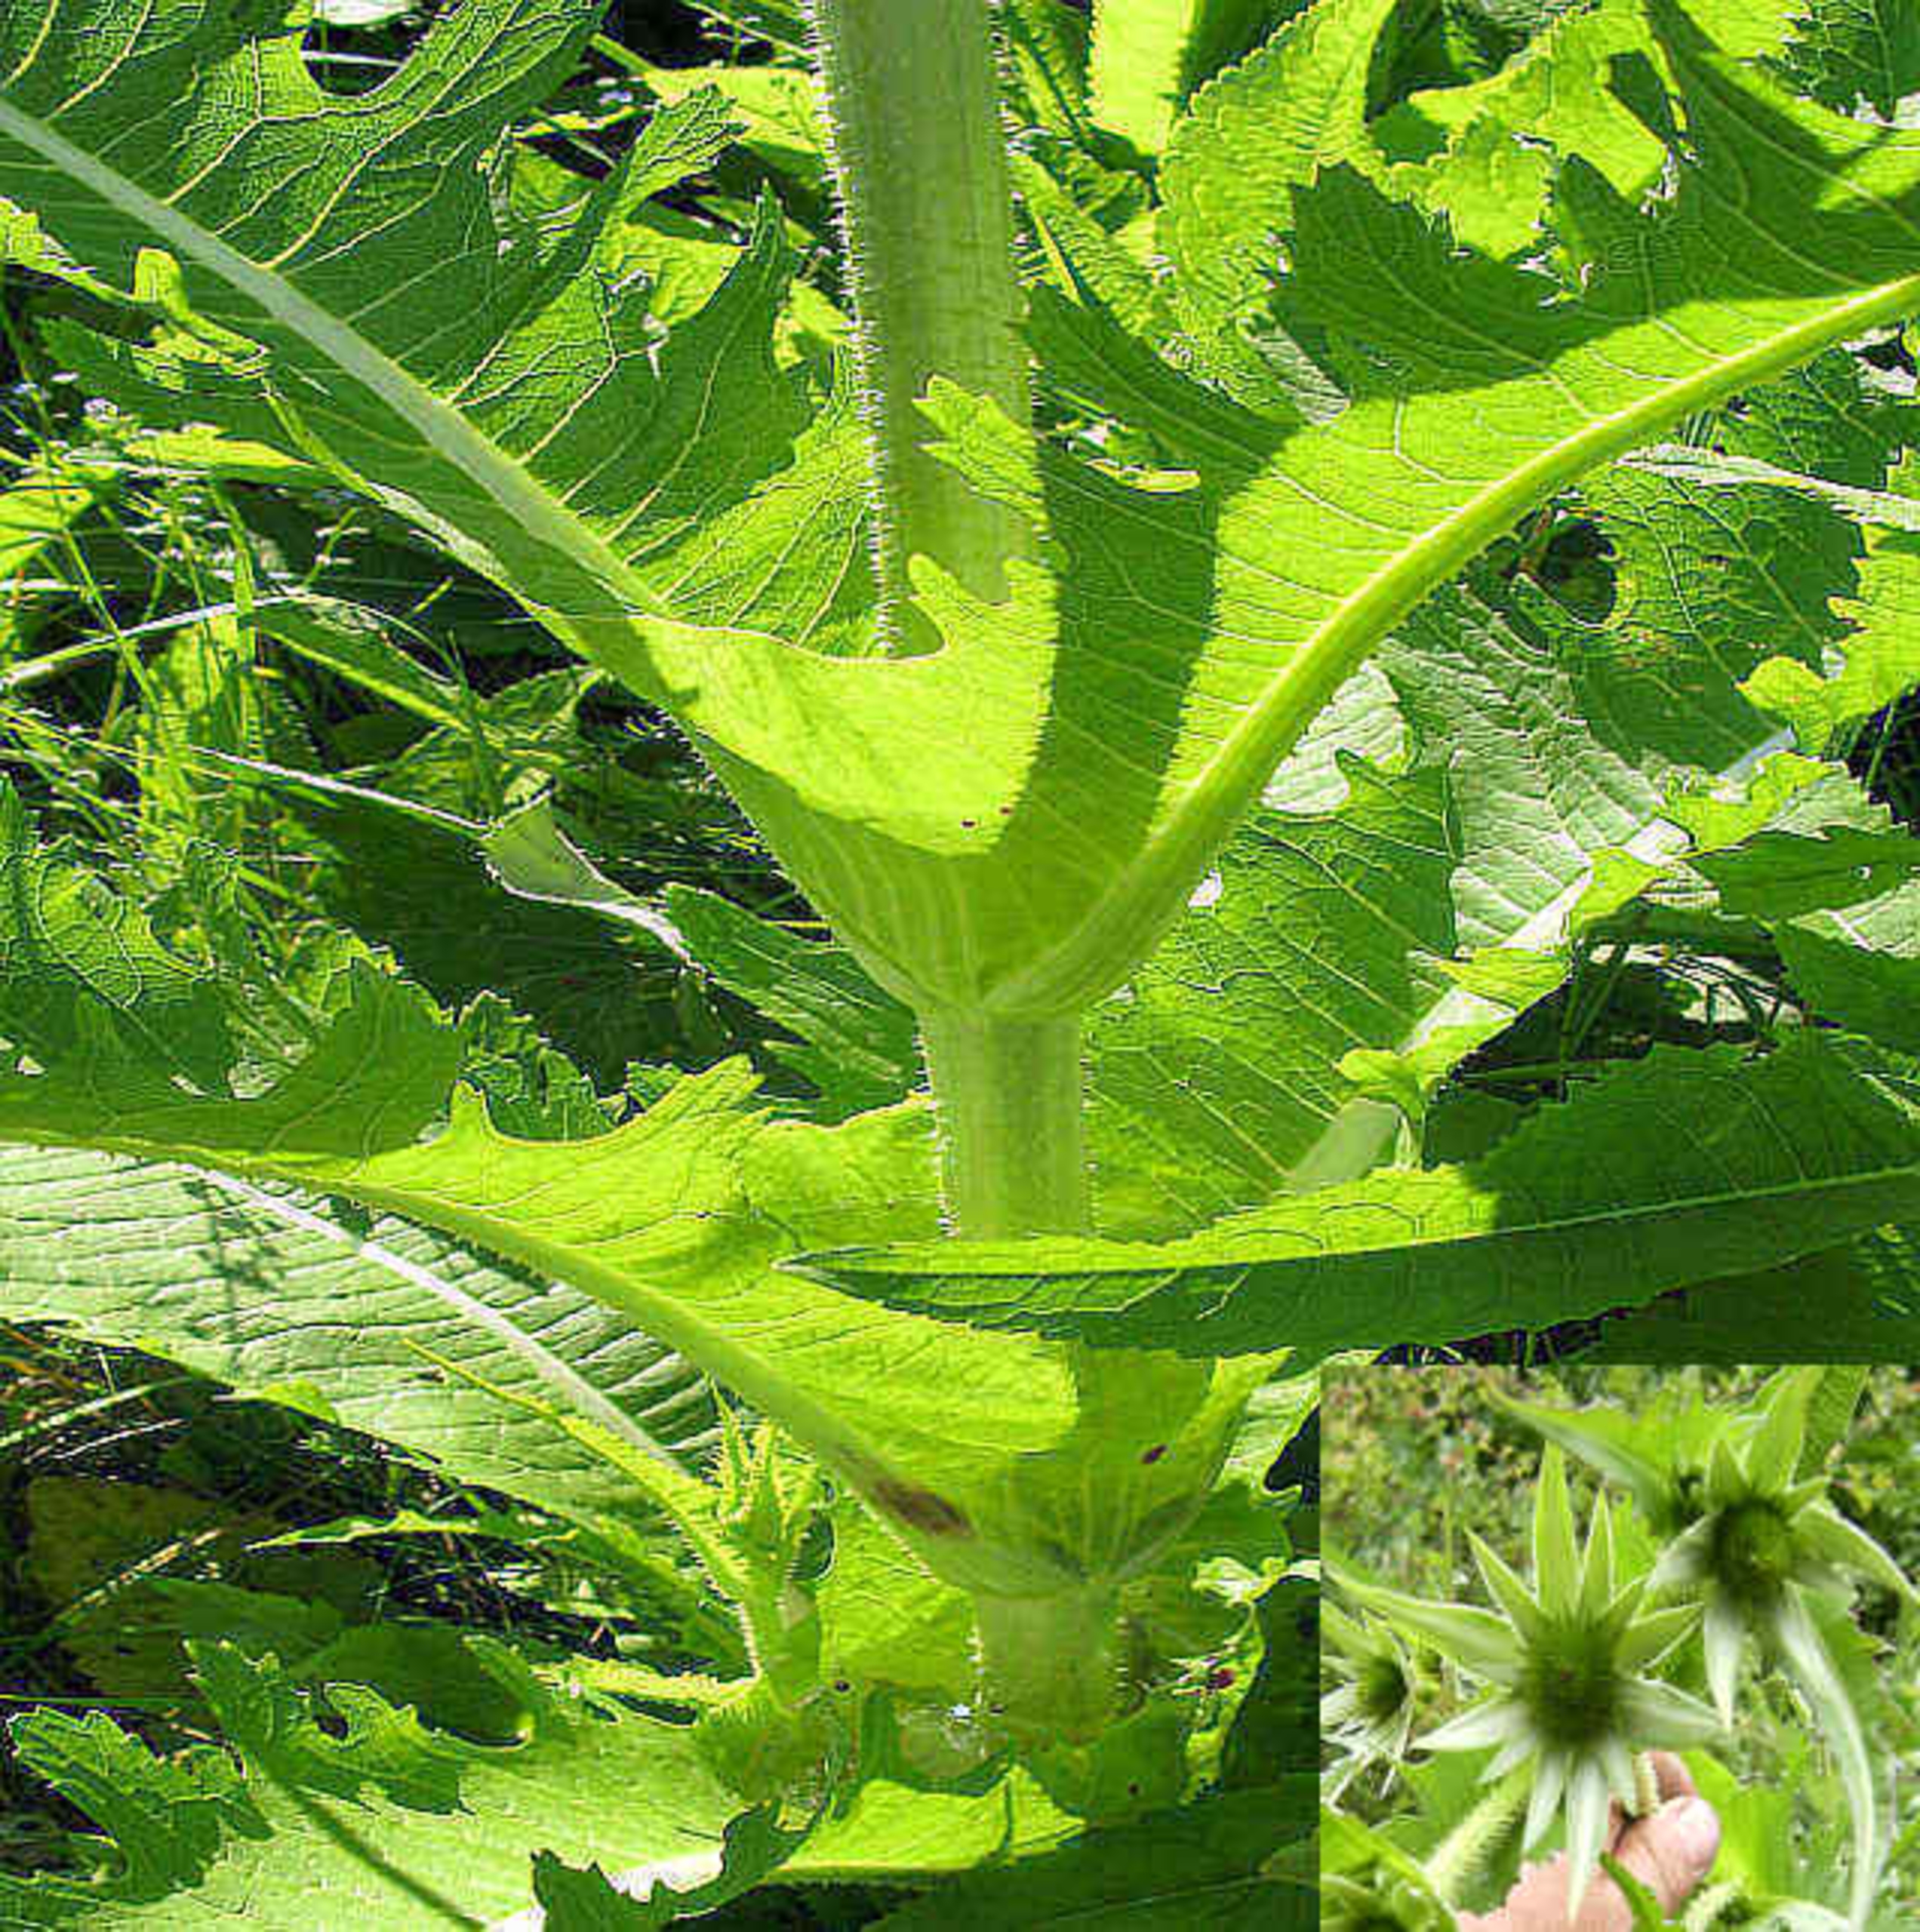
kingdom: Plantae
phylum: Tracheophyta
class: Magnoliopsida
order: Dipsacales
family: Caprifoliaceae
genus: Dipsacus
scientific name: Dipsacus laciniatus
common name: Fliget kartebolle
